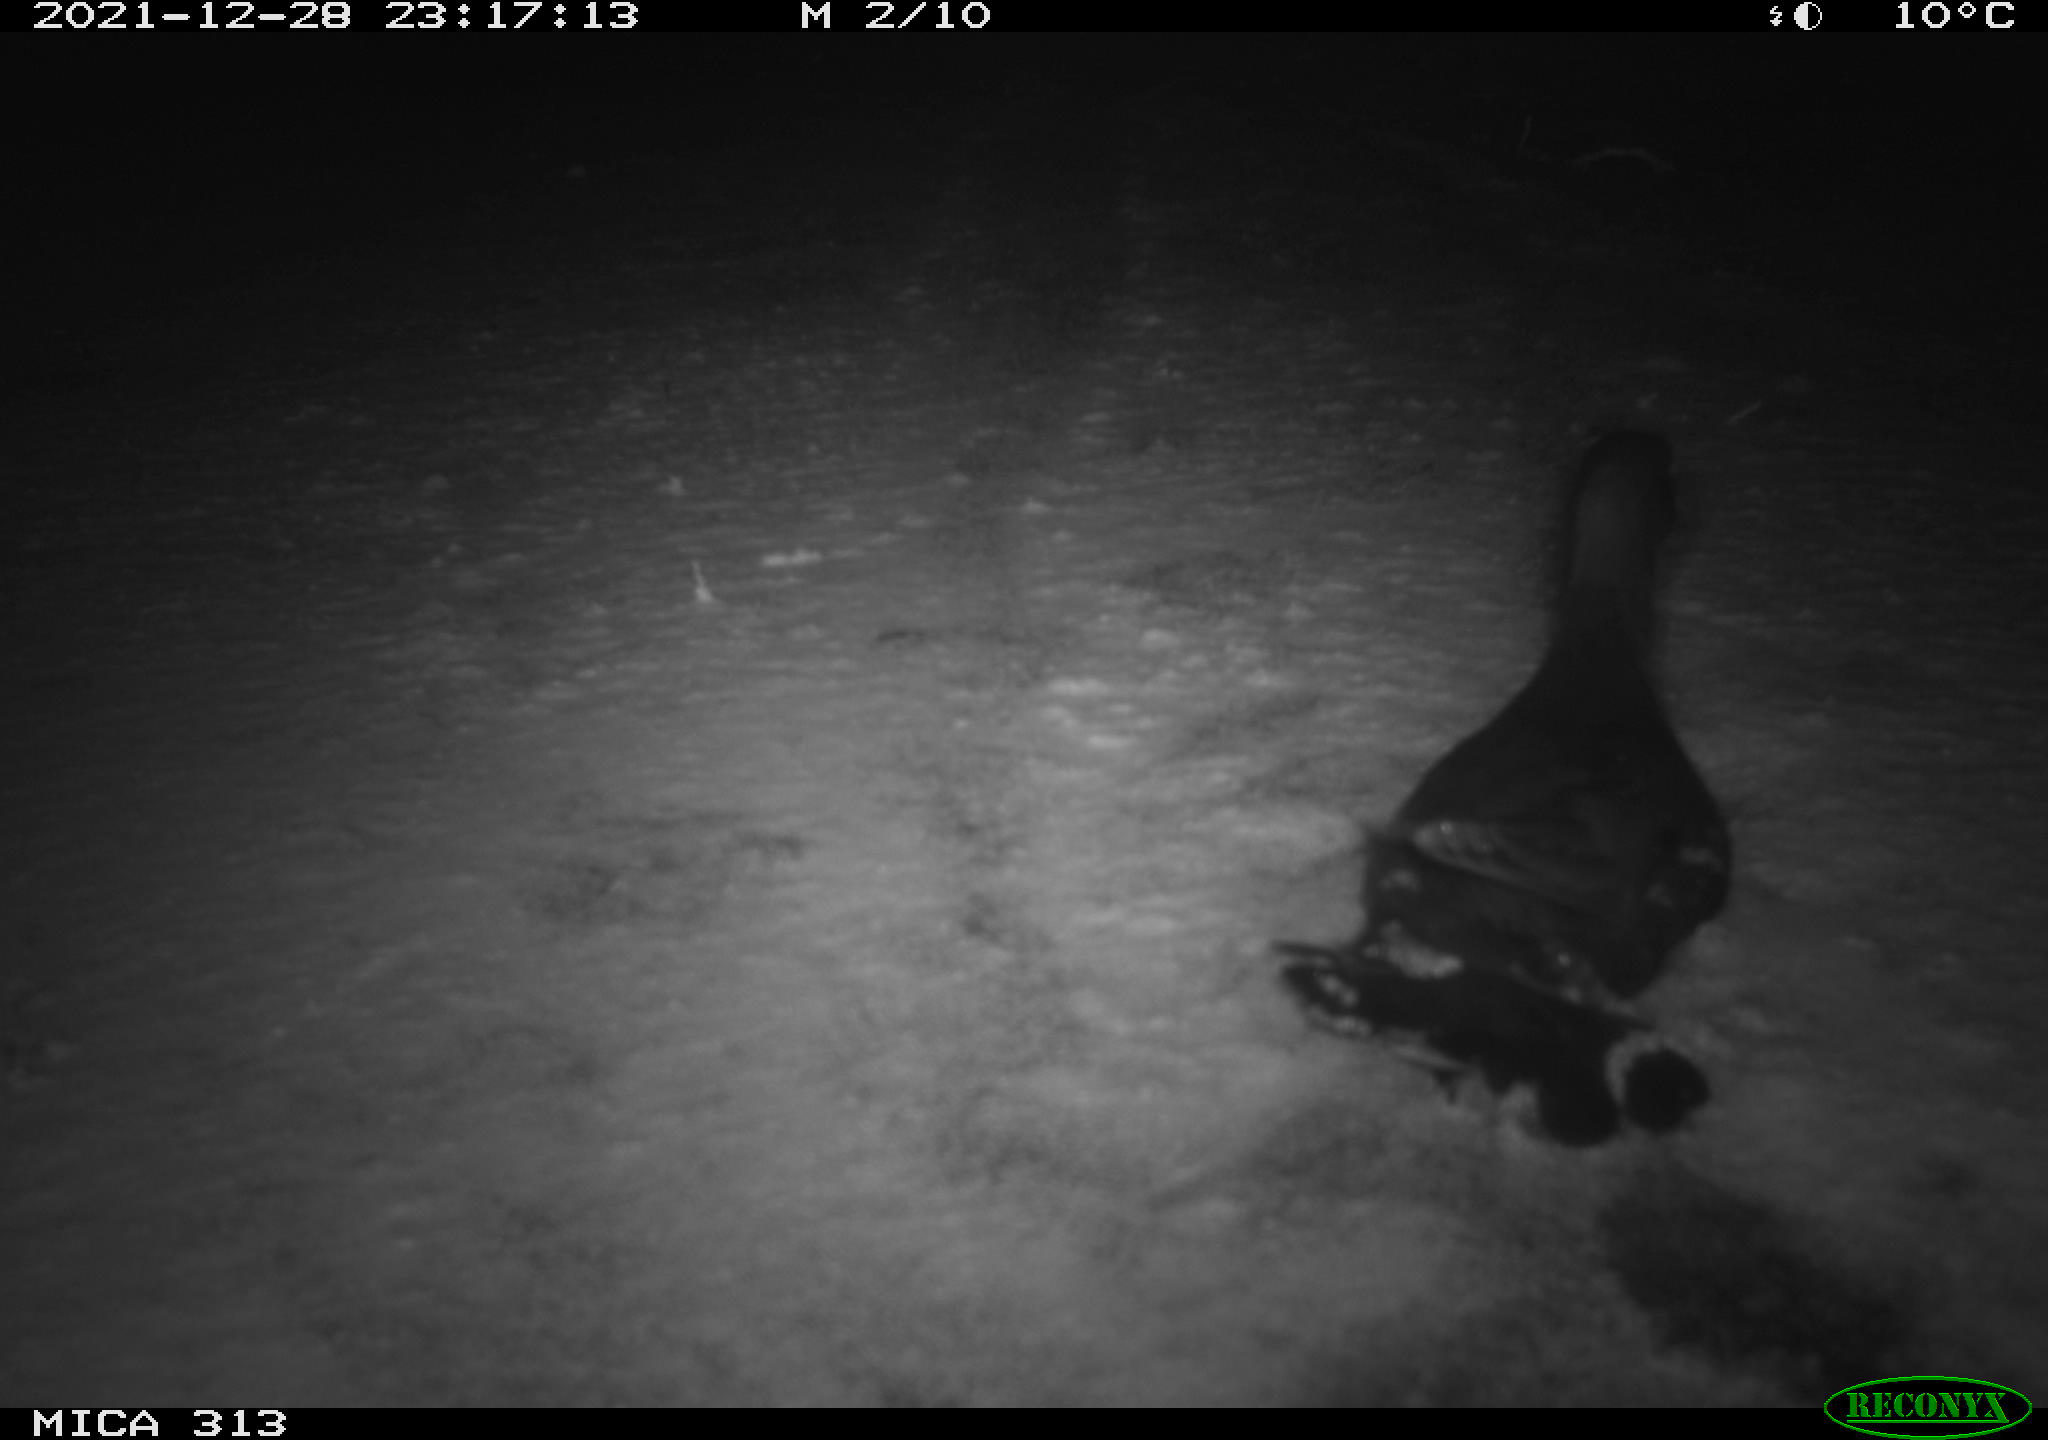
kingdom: Animalia
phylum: Chordata
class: Aves
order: Gruiformes
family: Rallidae
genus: Fulica
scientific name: Fulica atra
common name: Eurasian coot
